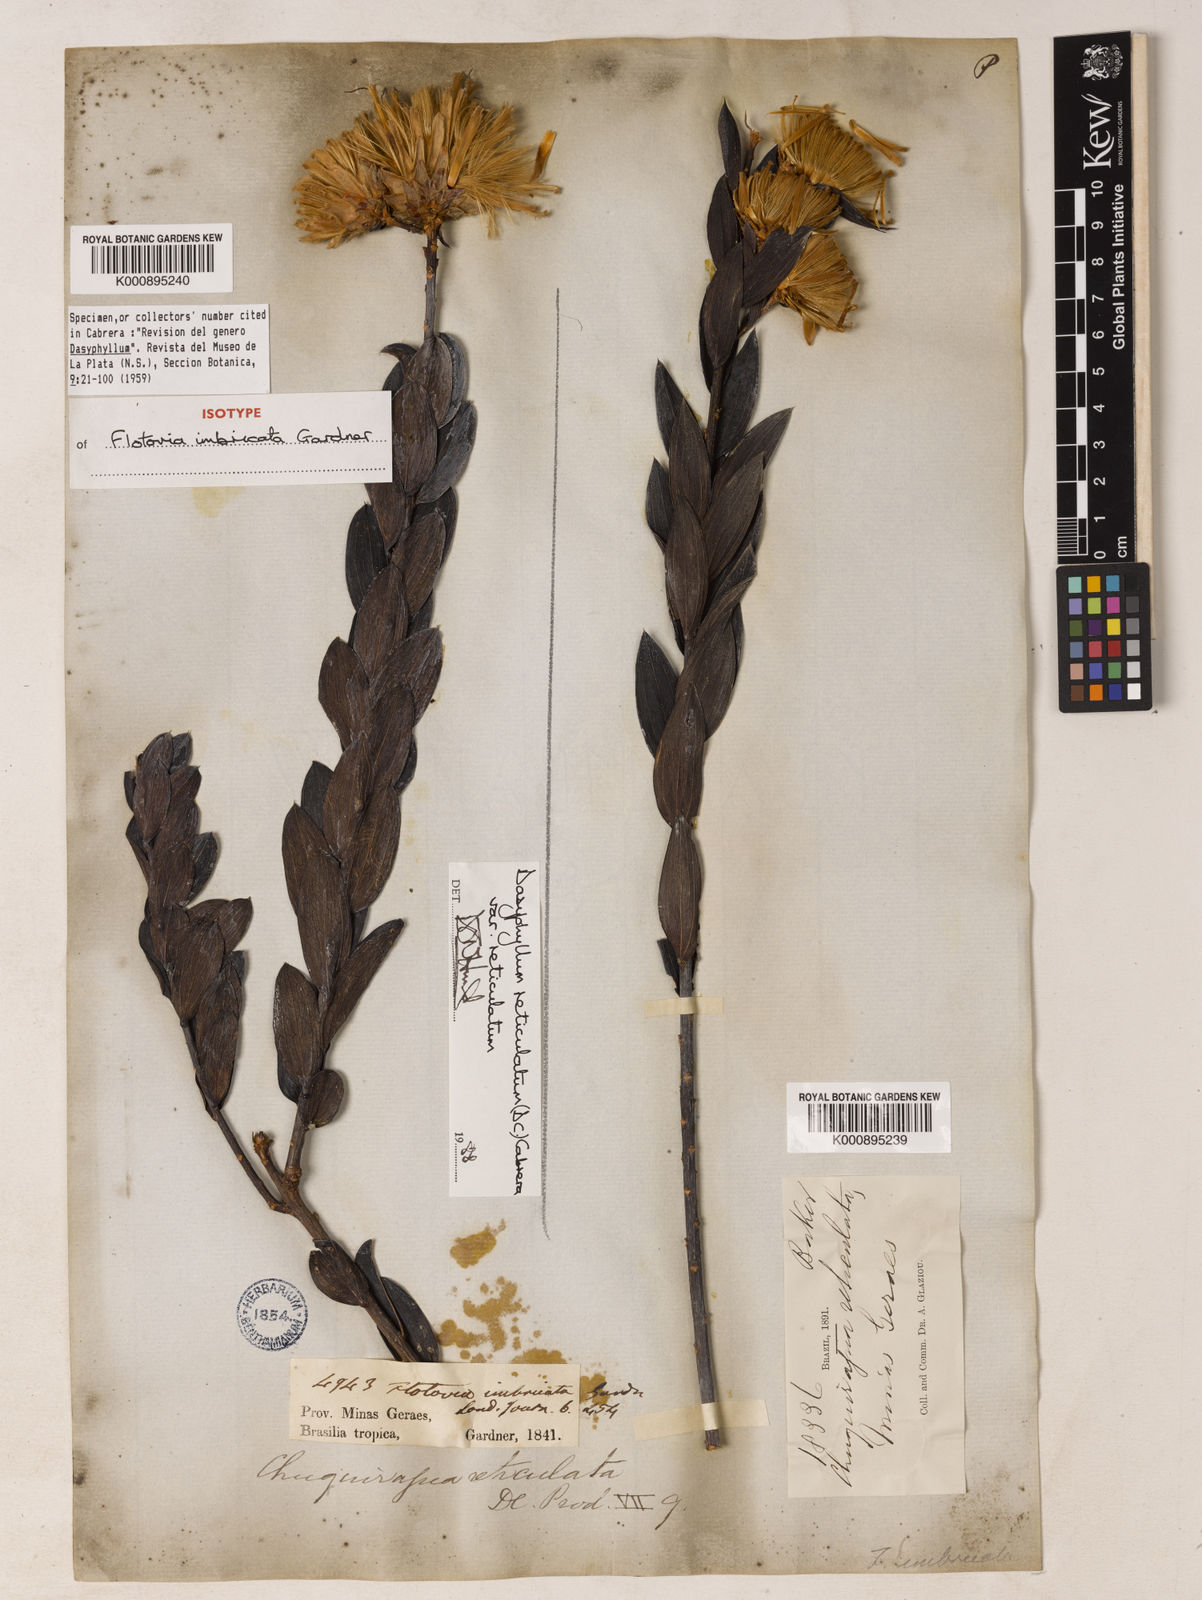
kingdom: Plantae
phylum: Tracheophyta
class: Magnoliopsida
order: Asterales
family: Asteraceae
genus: Dasyphyllum
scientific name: Dasyphyllum reticulatum
